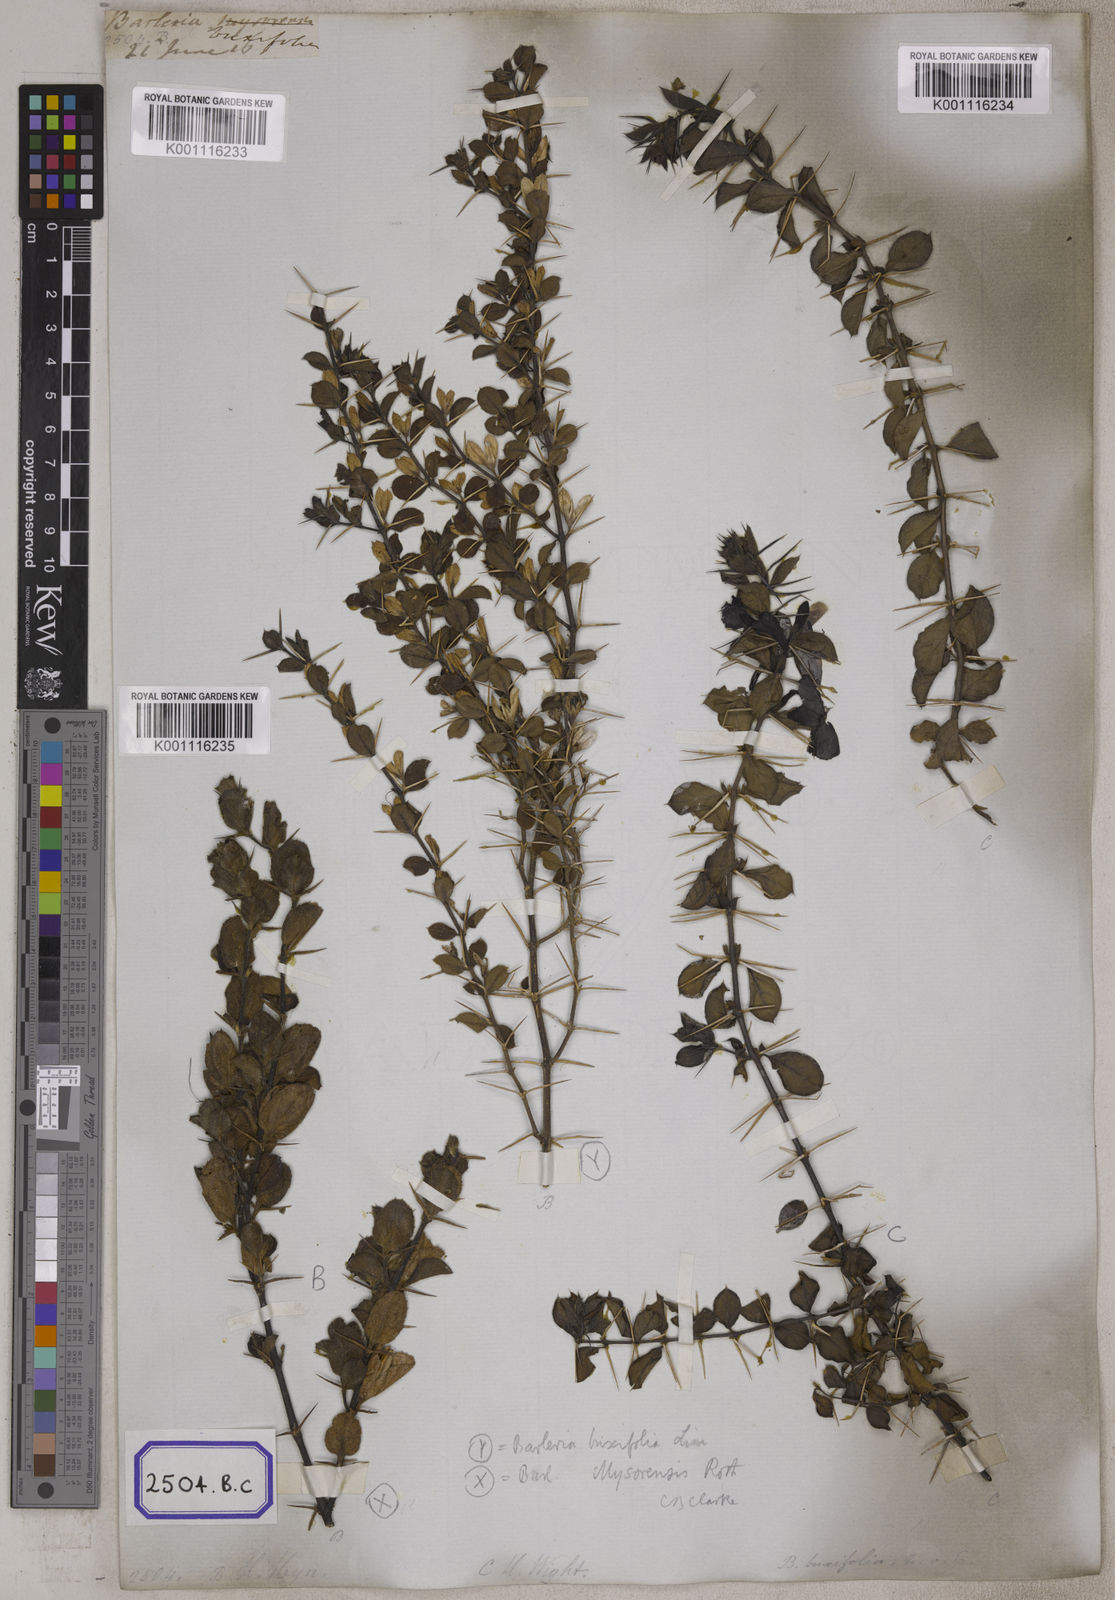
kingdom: Plantae
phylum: Tracheophyta
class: Magnoliopsida
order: Lamiales
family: Acanthaceae
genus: Barleria
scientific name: Barleria
